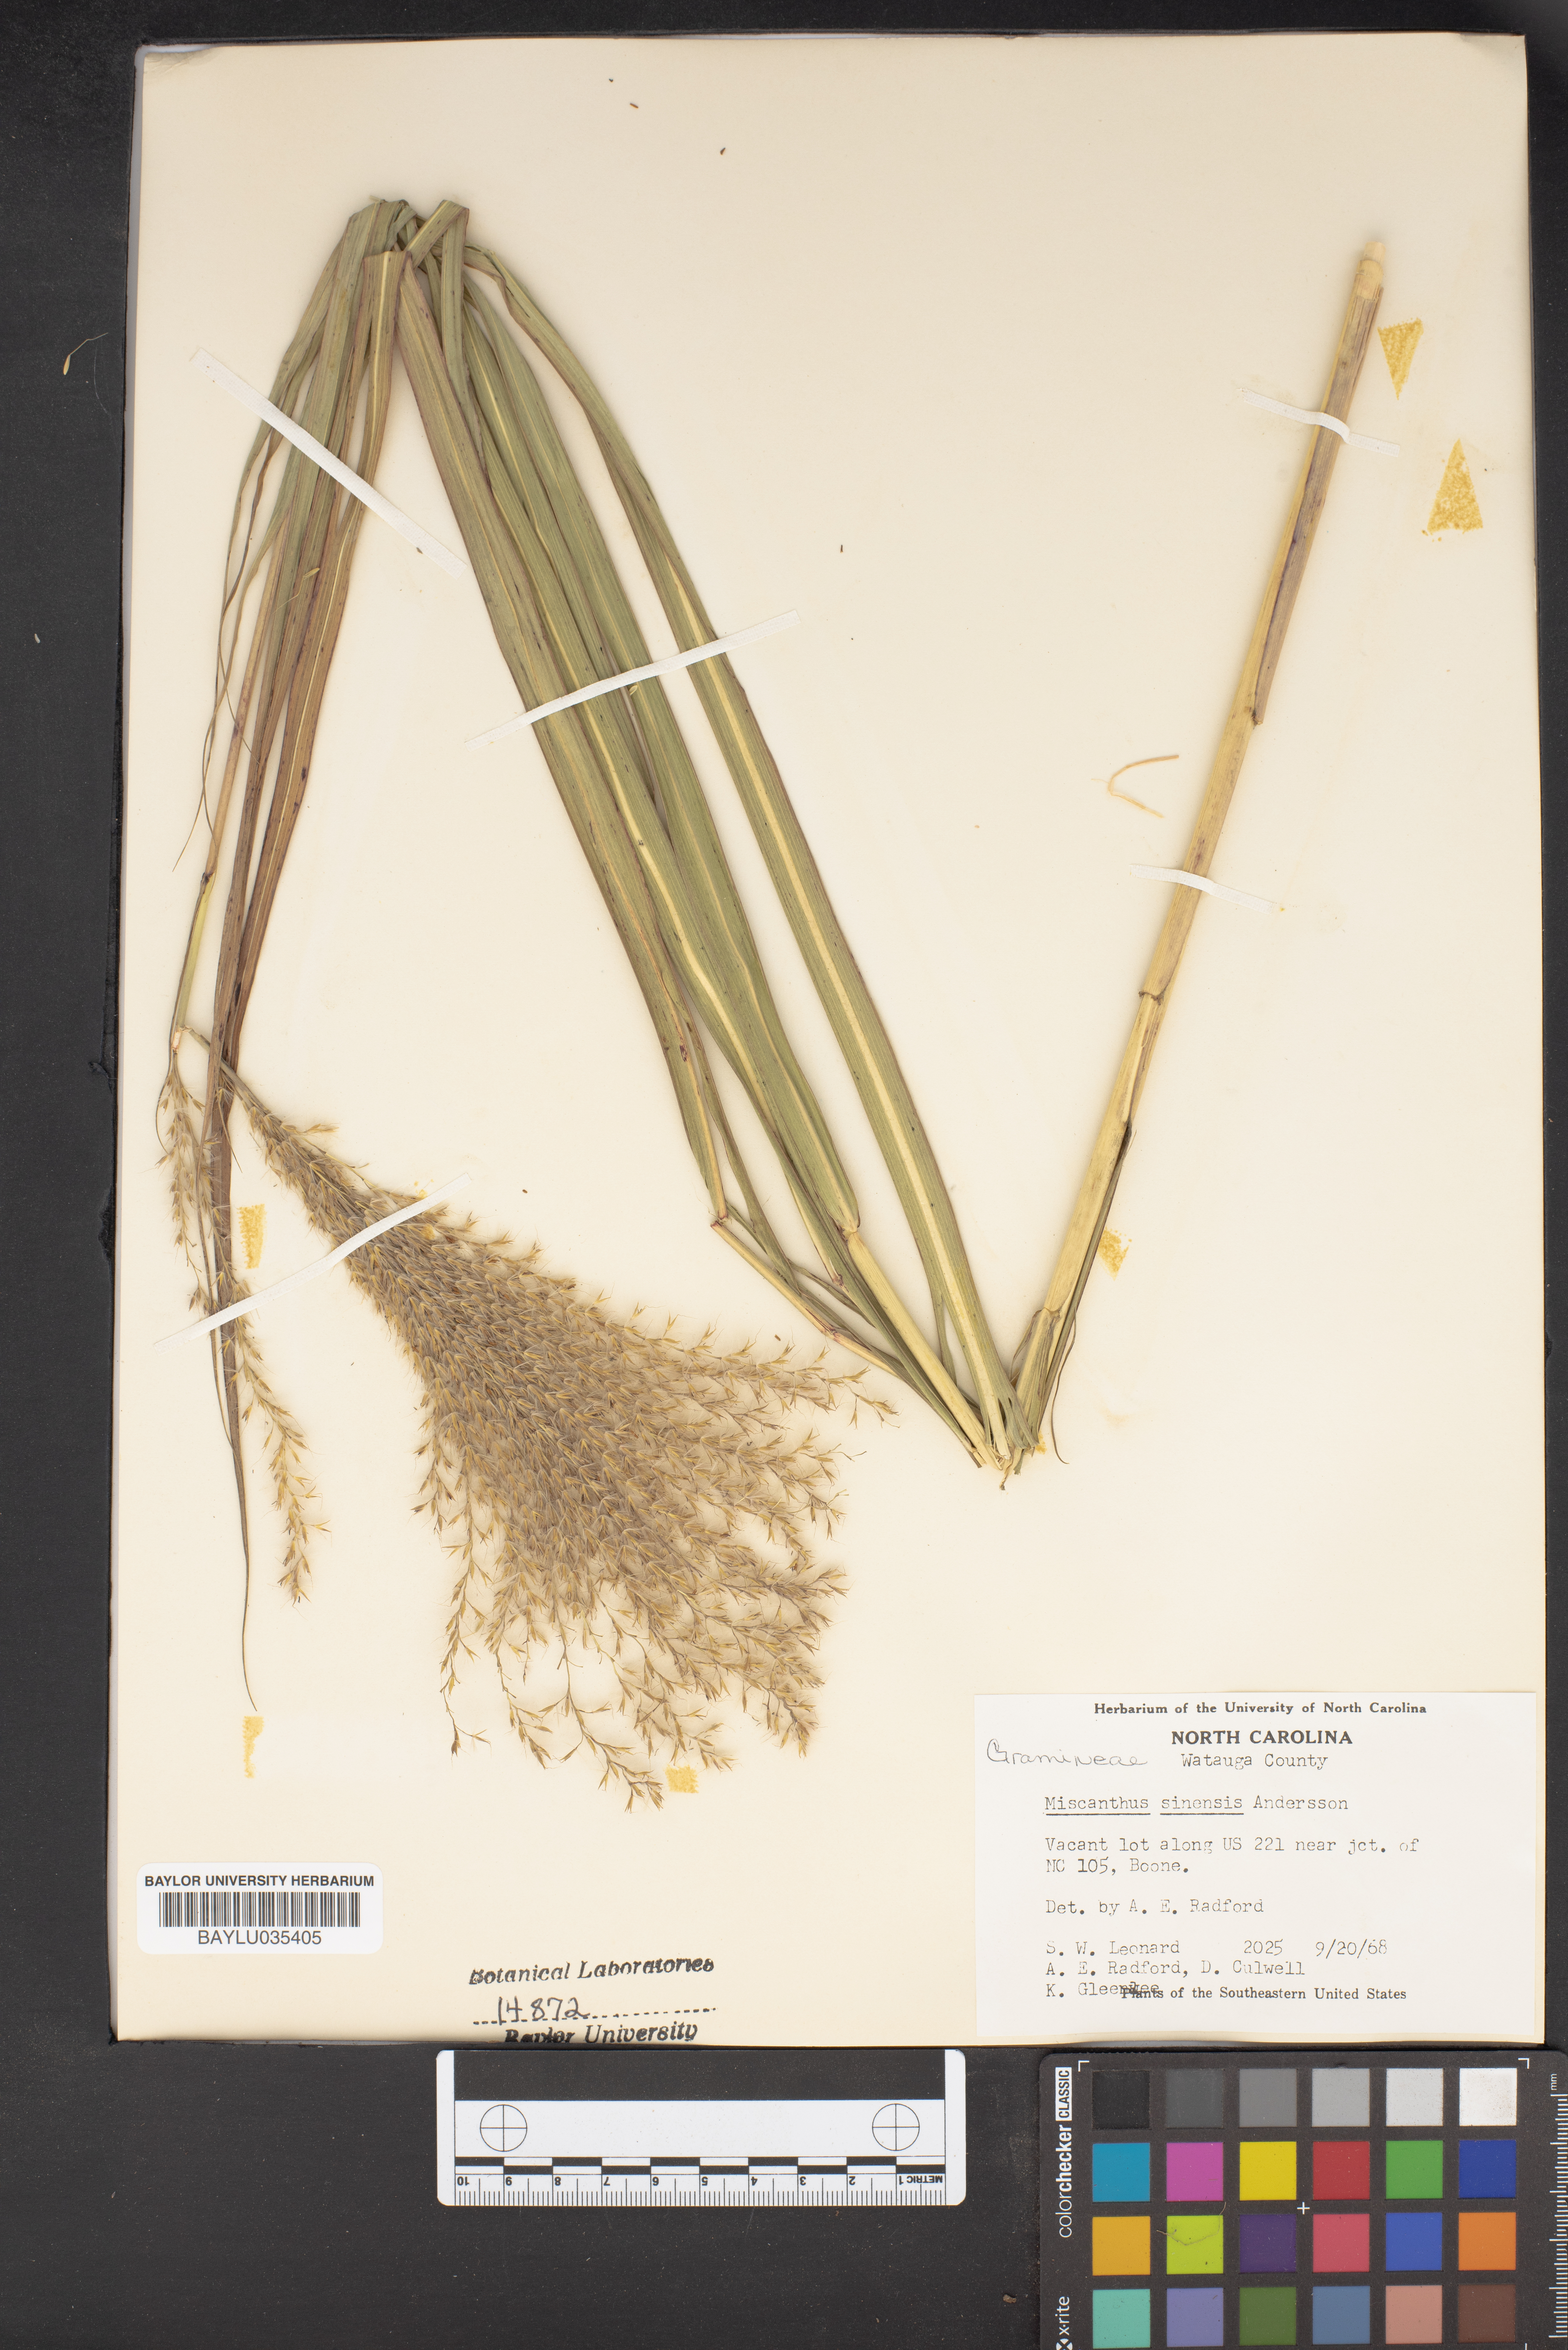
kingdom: Plantae
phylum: Tracheophyta
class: Liliopsida
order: Poales
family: Poaceae
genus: Miscanthus
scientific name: Miscanthus sinensis
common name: Chinese silvergrass
